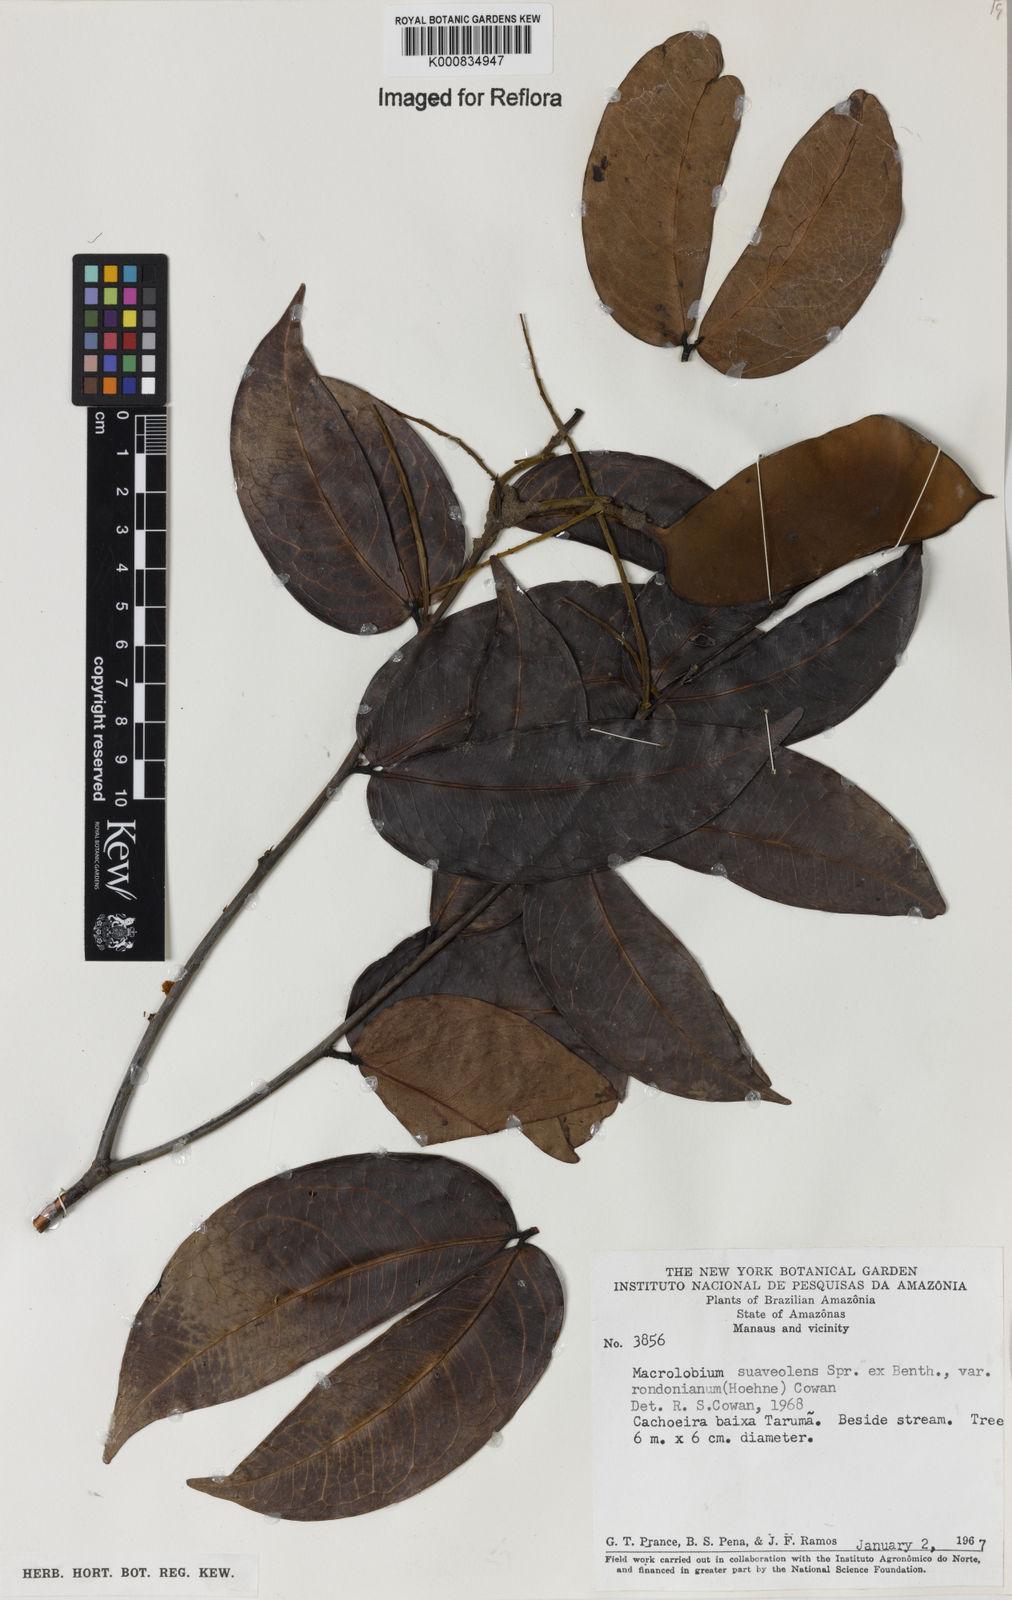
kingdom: Plantae
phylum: Tracheophyta
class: Magnoliopsida
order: Fabales
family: Fabaceae
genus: Macrolobium
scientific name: Macrolobium suaveolens
